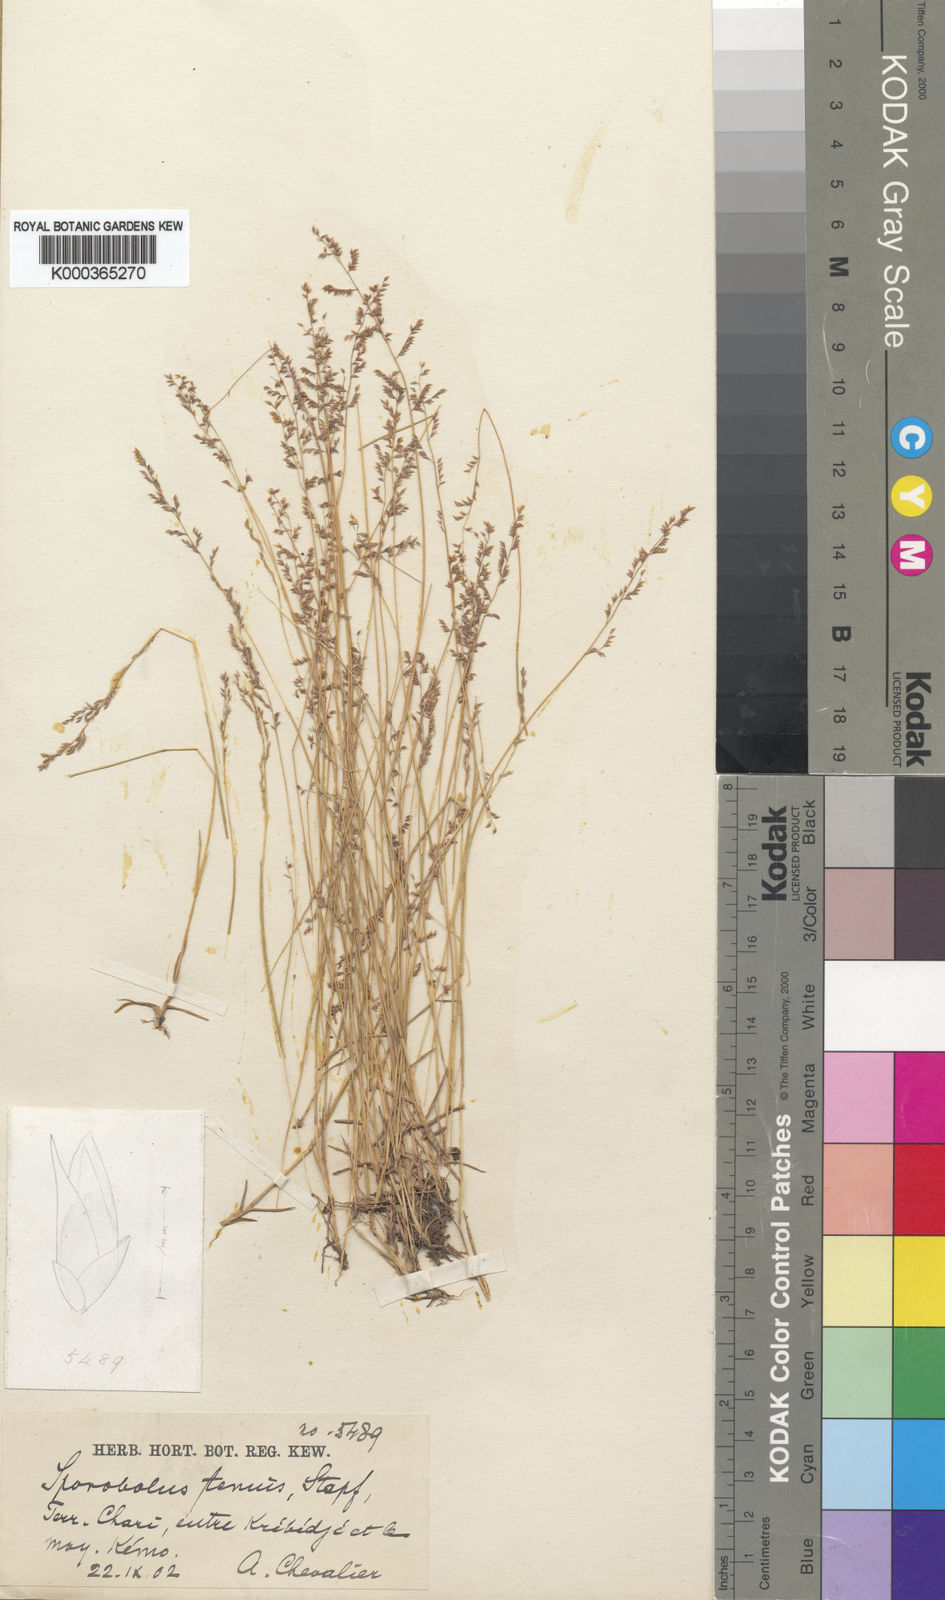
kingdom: Plantae
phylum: Tracheophyta
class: Liliopsida
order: Poales
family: Poaceae
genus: Sporobolus
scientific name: Sporobolus infirmus
